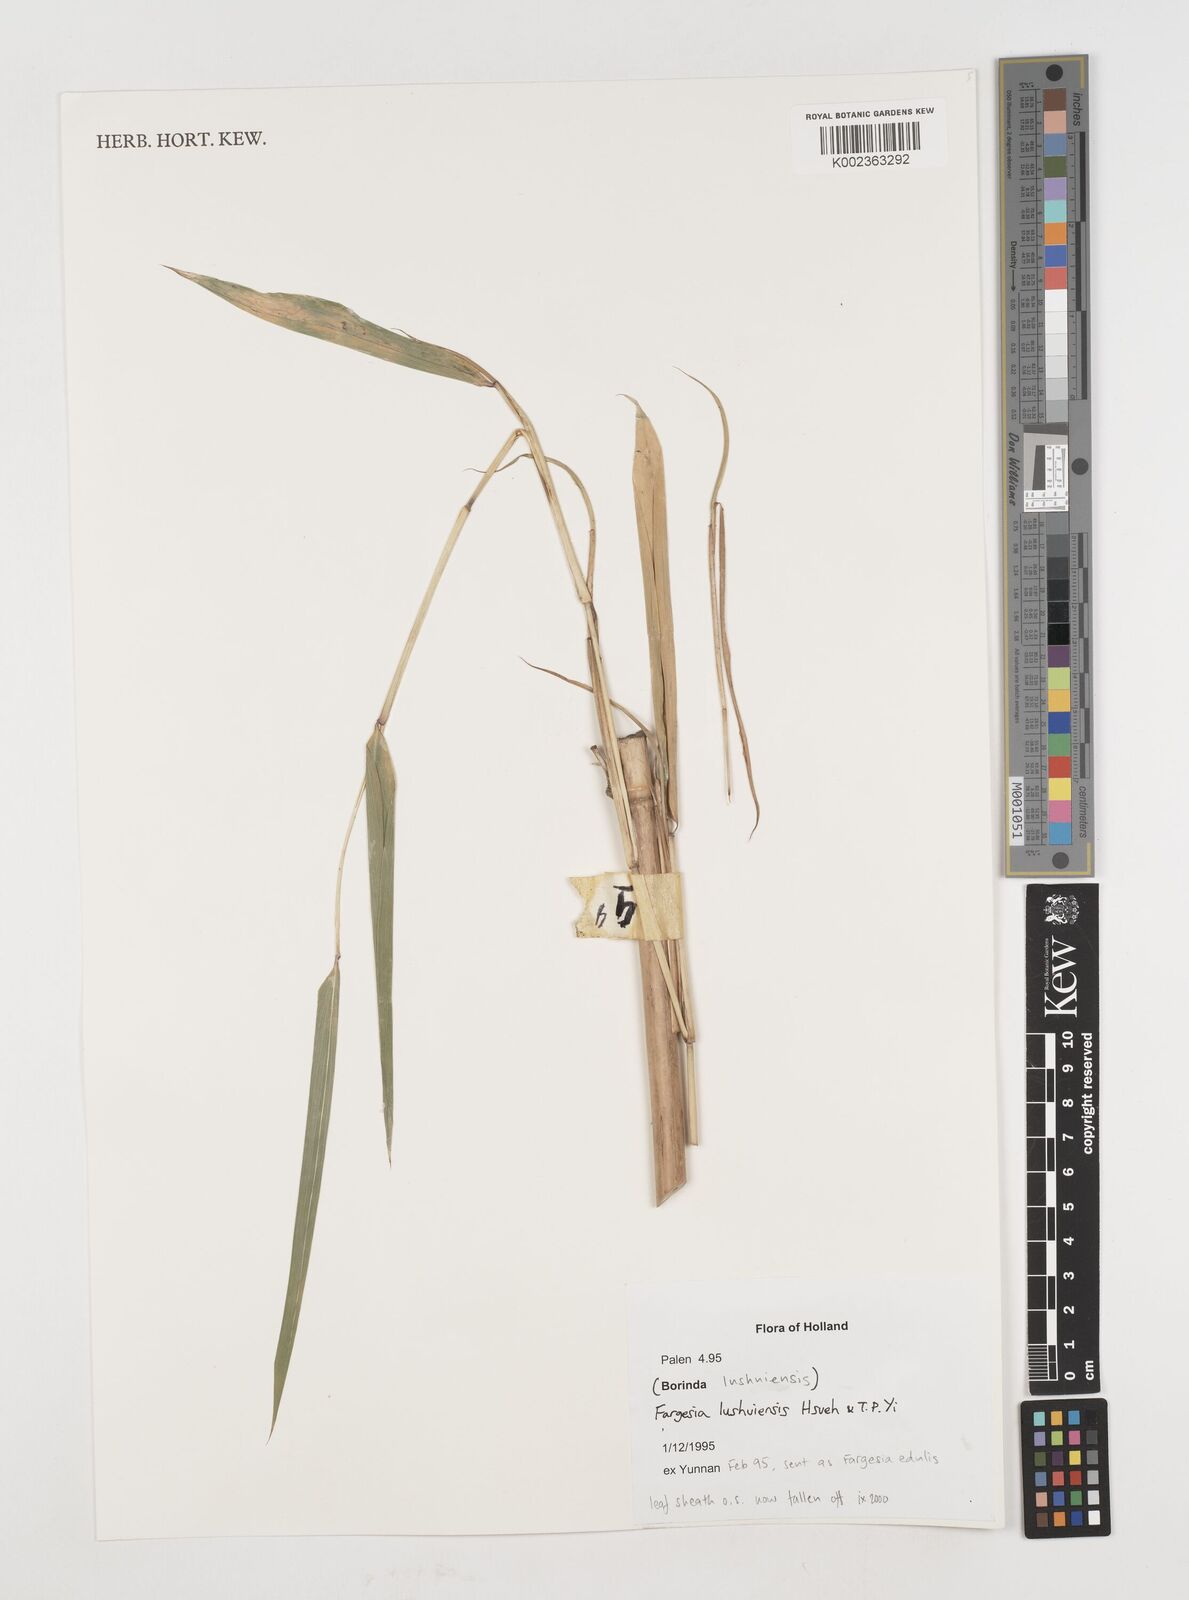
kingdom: Plantae
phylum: Tracheophyta
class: Liliopsida
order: Poales
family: Poaceae
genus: Borinda
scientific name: Borinda lushuiensis
